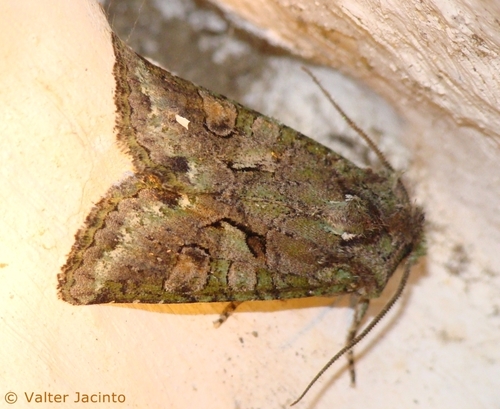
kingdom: Animalia
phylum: Arthropoda
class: Insecta
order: Lepidoptera
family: Noctuidae
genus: Dryobotodes
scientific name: Dryobotodes roboris
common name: Southern brindled green
